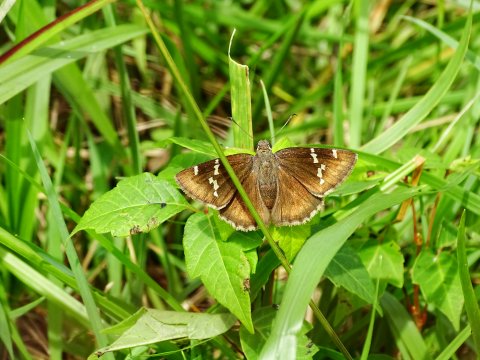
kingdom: Animalia
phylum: Arthropoda
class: Insecta
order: Lepidoptera
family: Hesperiidae
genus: Autochton
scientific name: Autochton
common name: Southern Cloudywing
